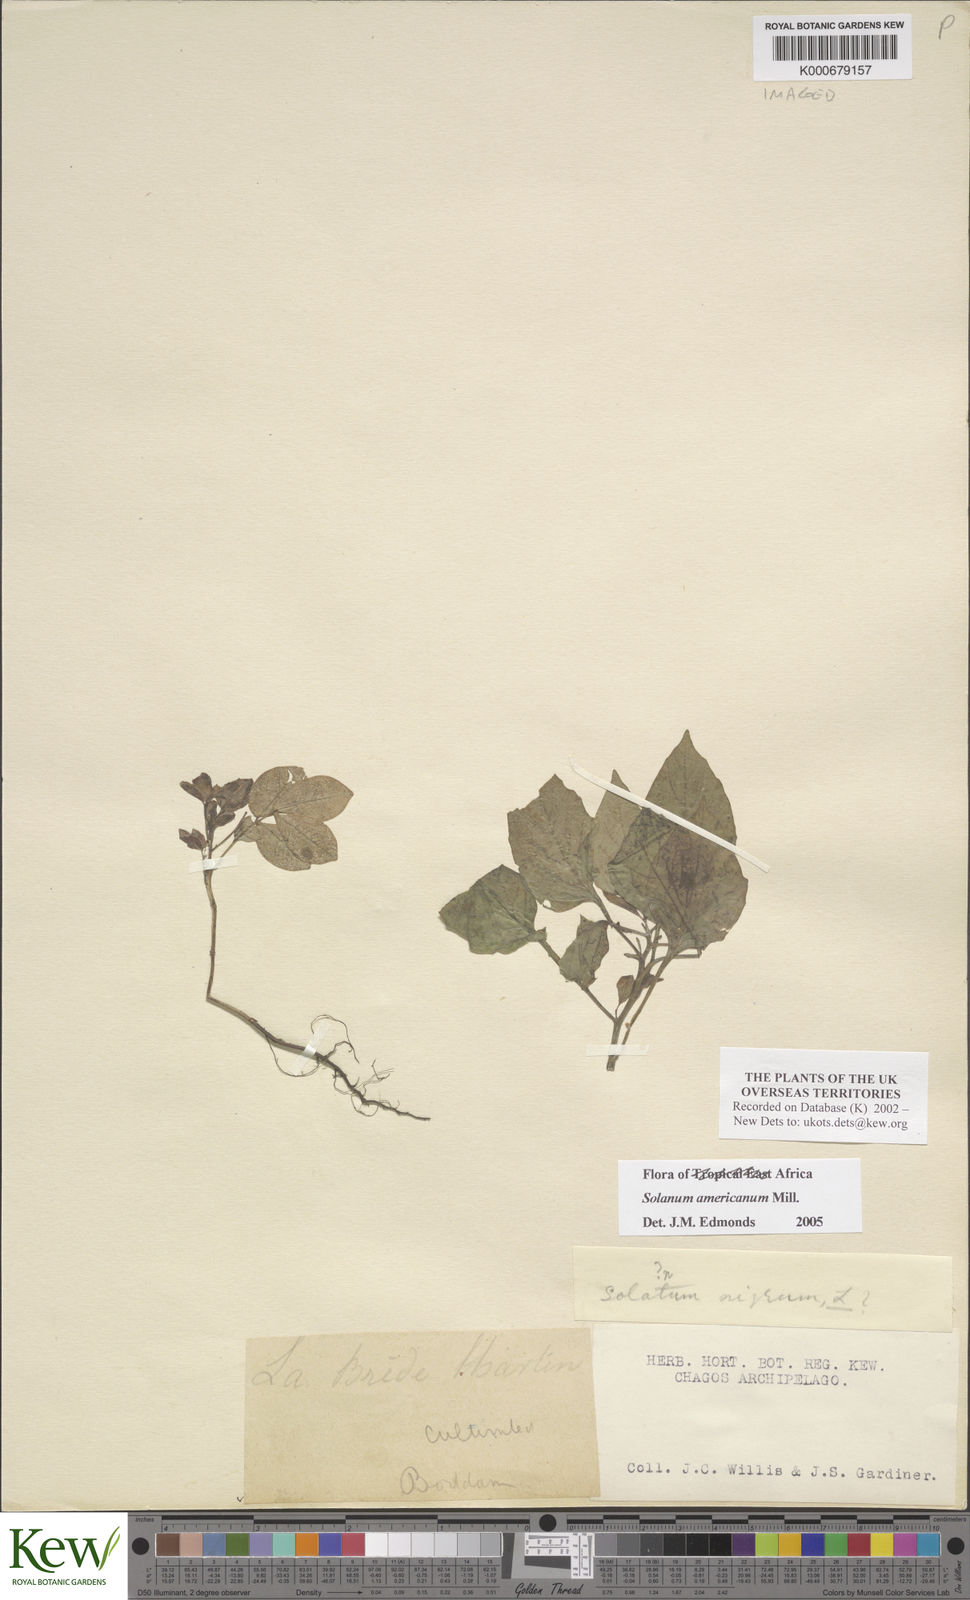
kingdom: Plantae
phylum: Tracheophyta
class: Magnoliopsida
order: Solanales
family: Solanaceae
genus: Solanum
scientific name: Solanum americanum
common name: American black nightshade
